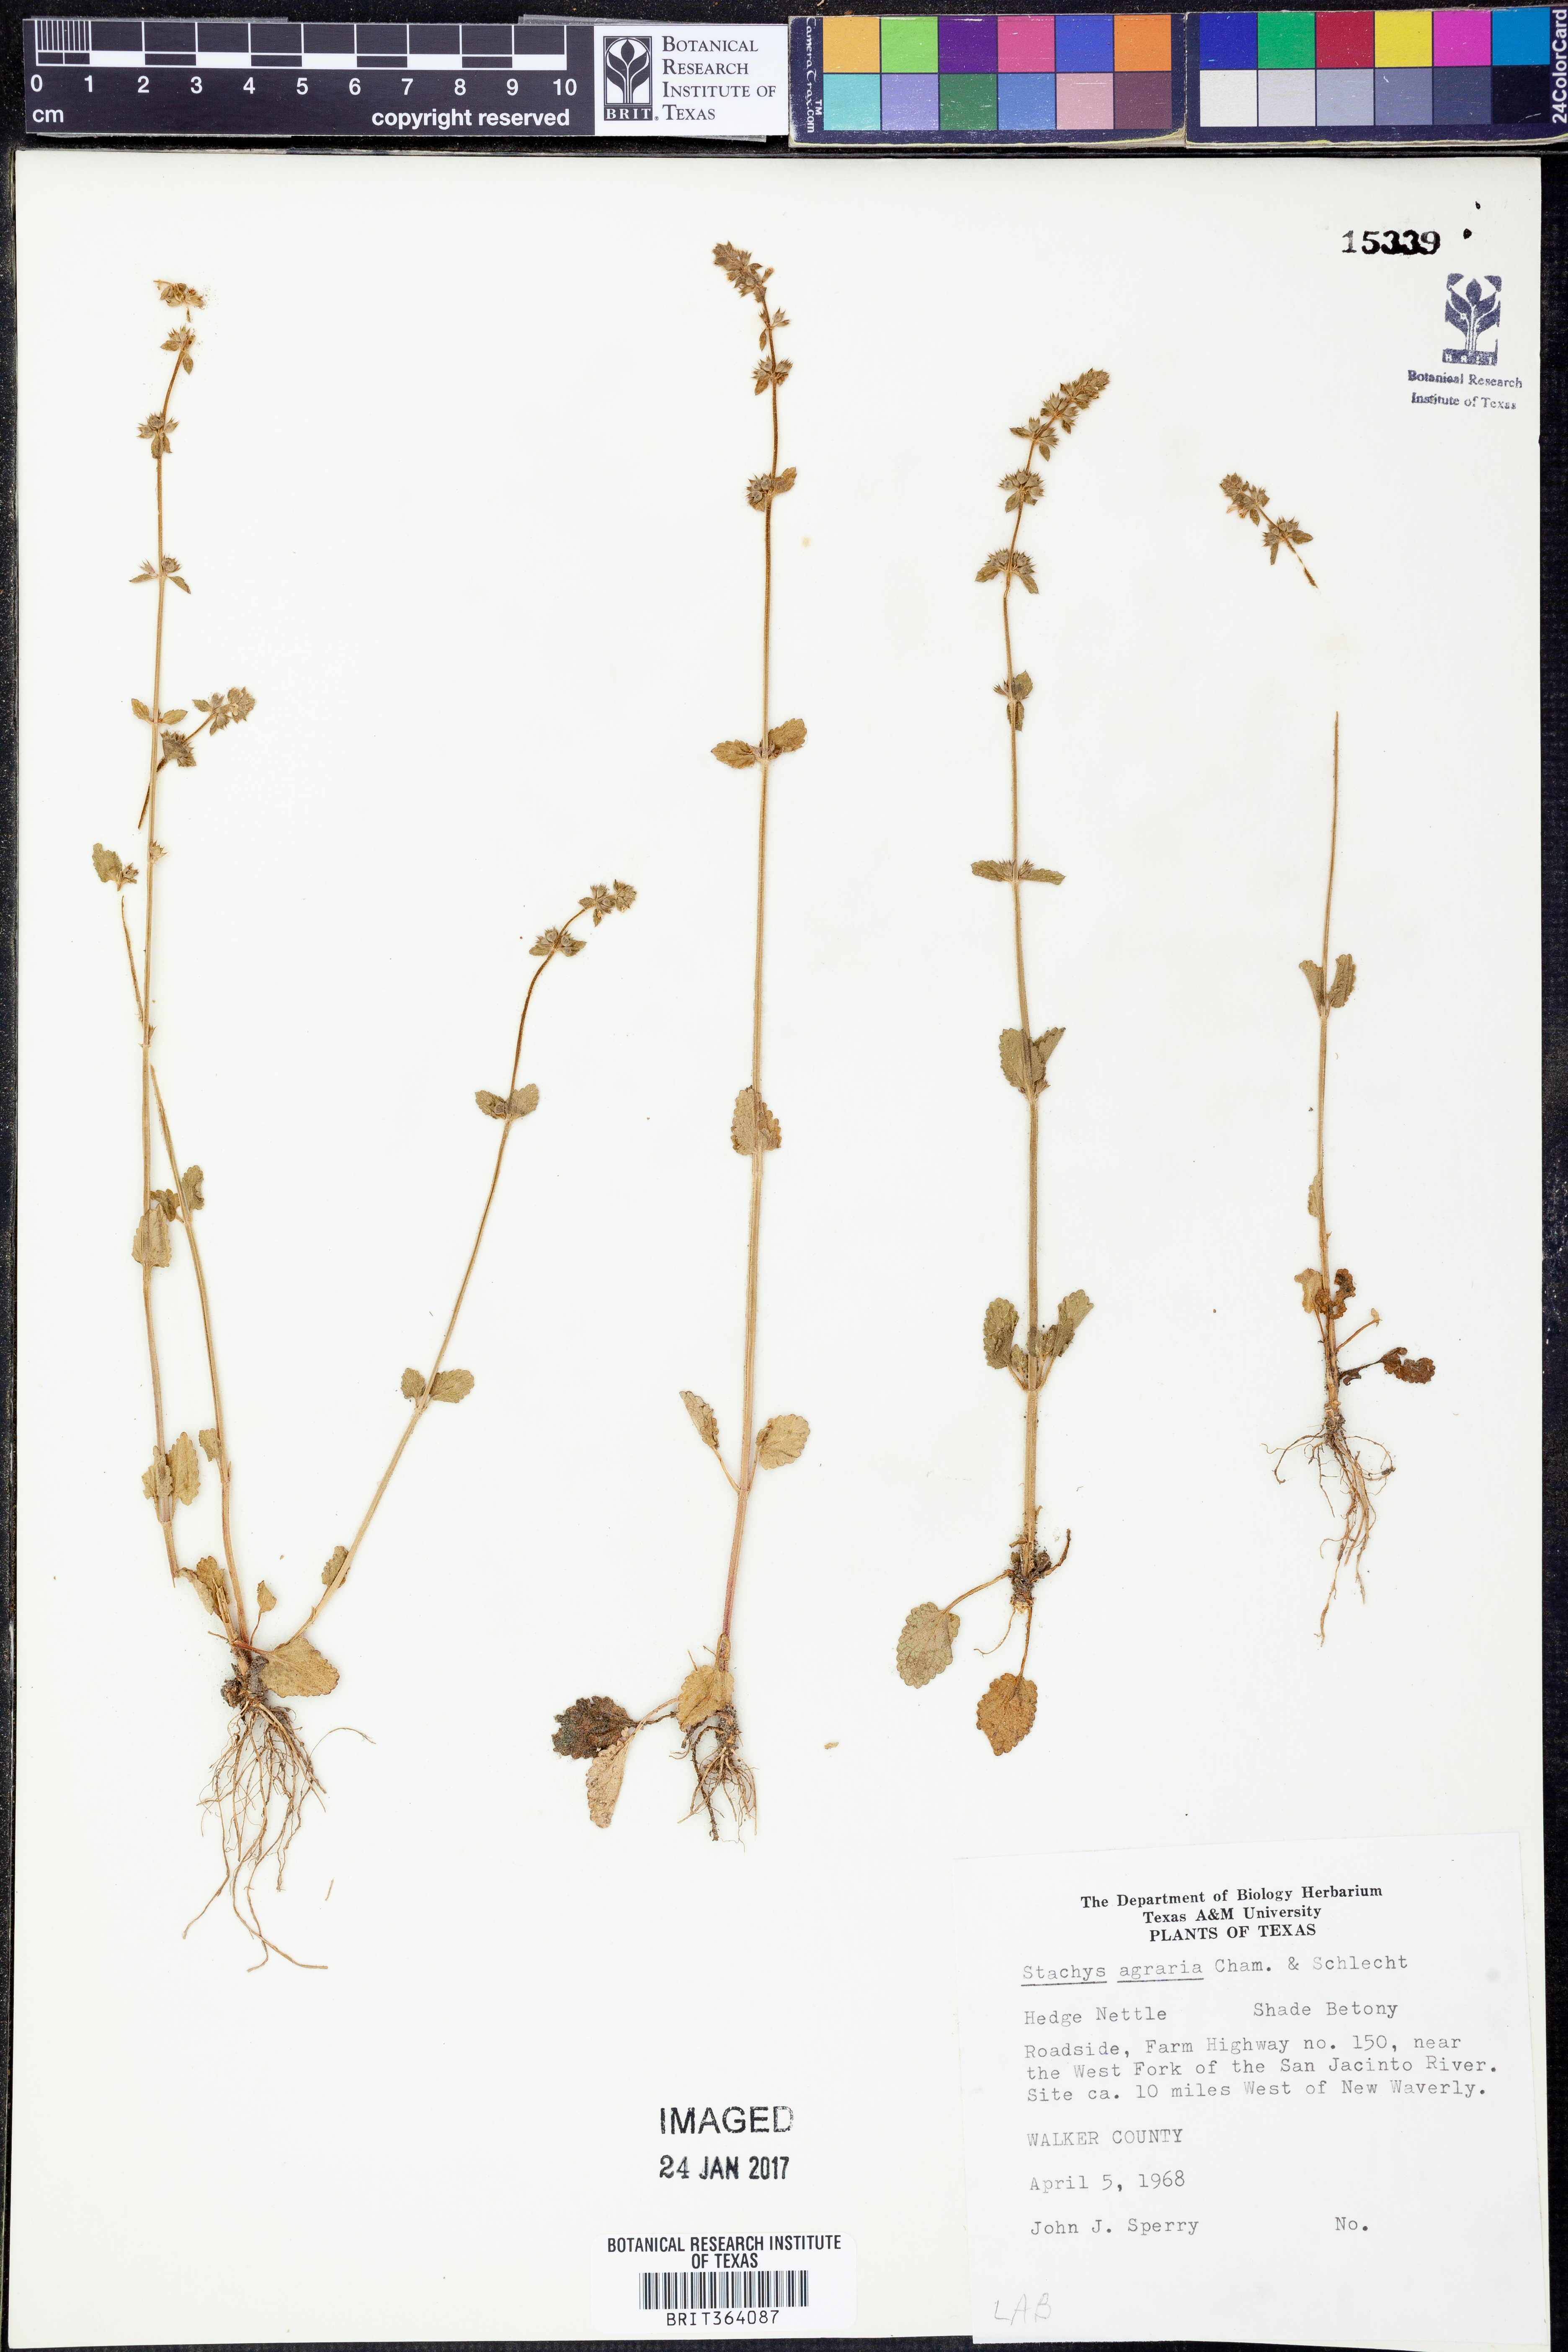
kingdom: Plantae
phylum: Tracheophyta
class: Magnoliopsida
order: Lamiales
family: Lamiaceae
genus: Stachys
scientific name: Stachys agraria
